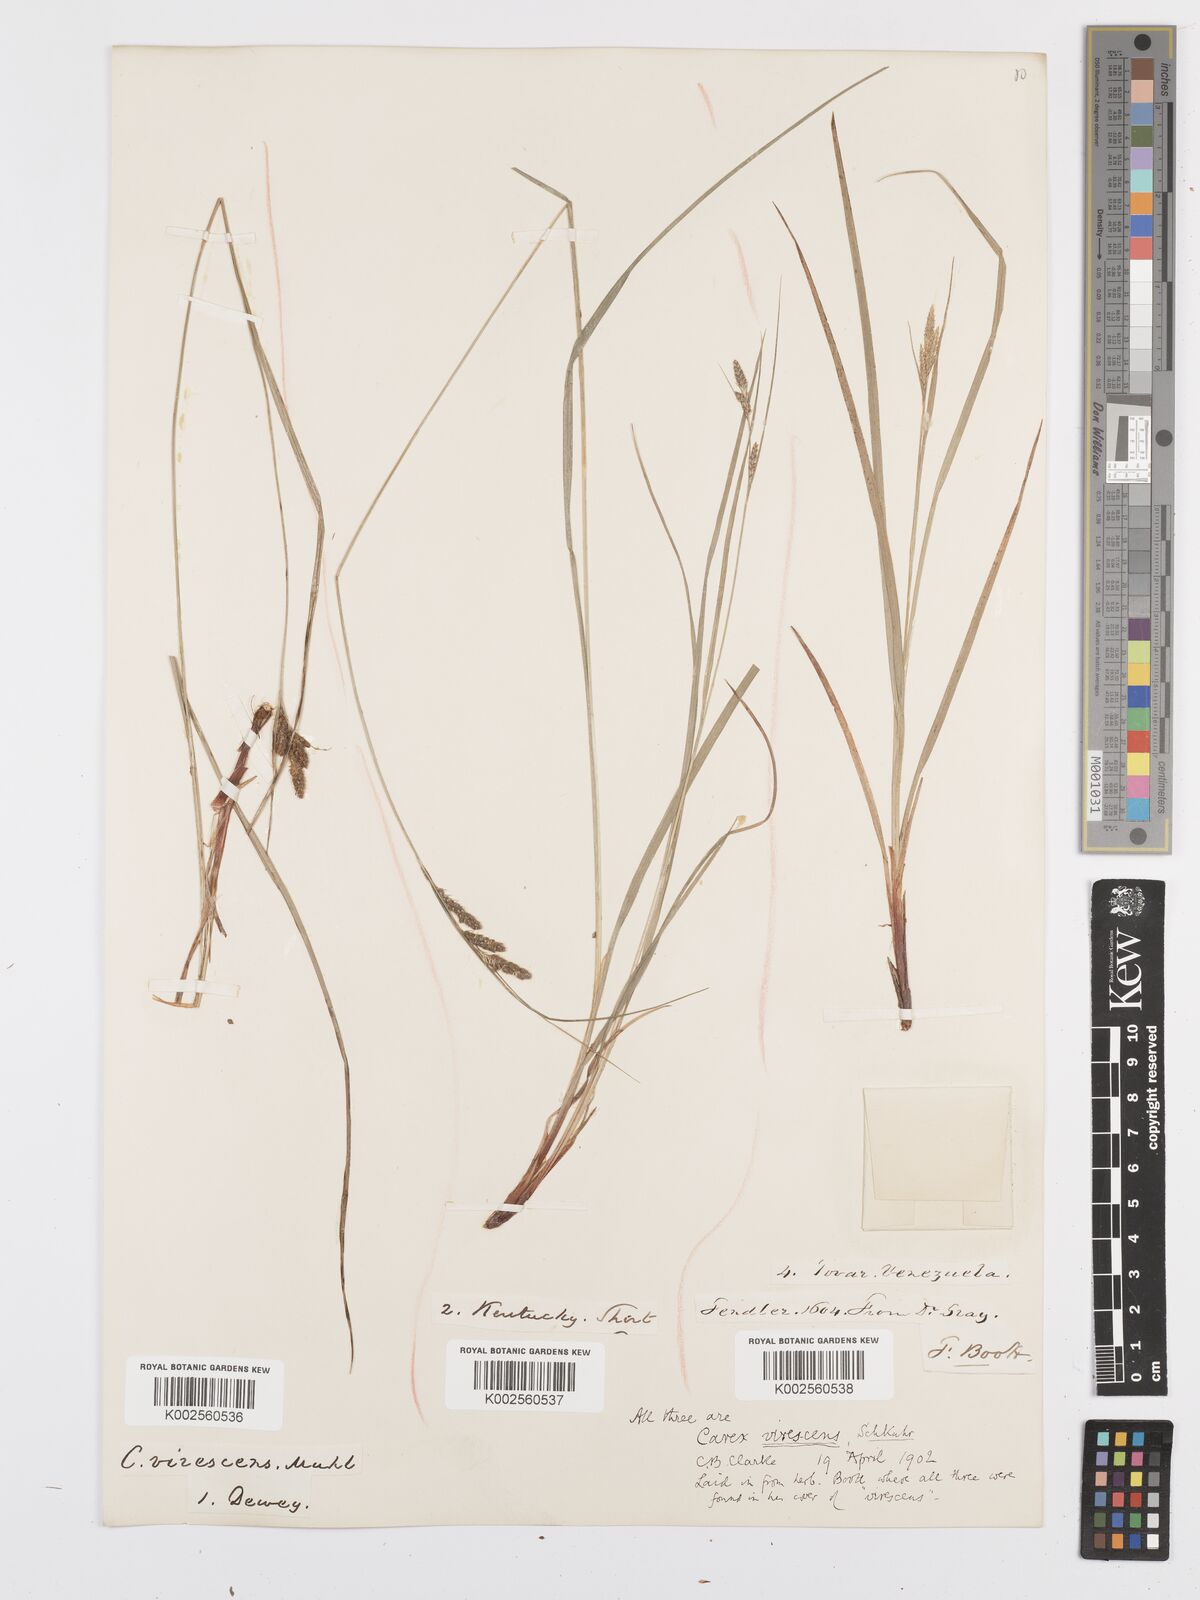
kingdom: Plantae
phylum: Tracheophyta
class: Liliopsida
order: Poales
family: Cyperaceae
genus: Carex
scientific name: Carex virescens
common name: Ribbed sedge
